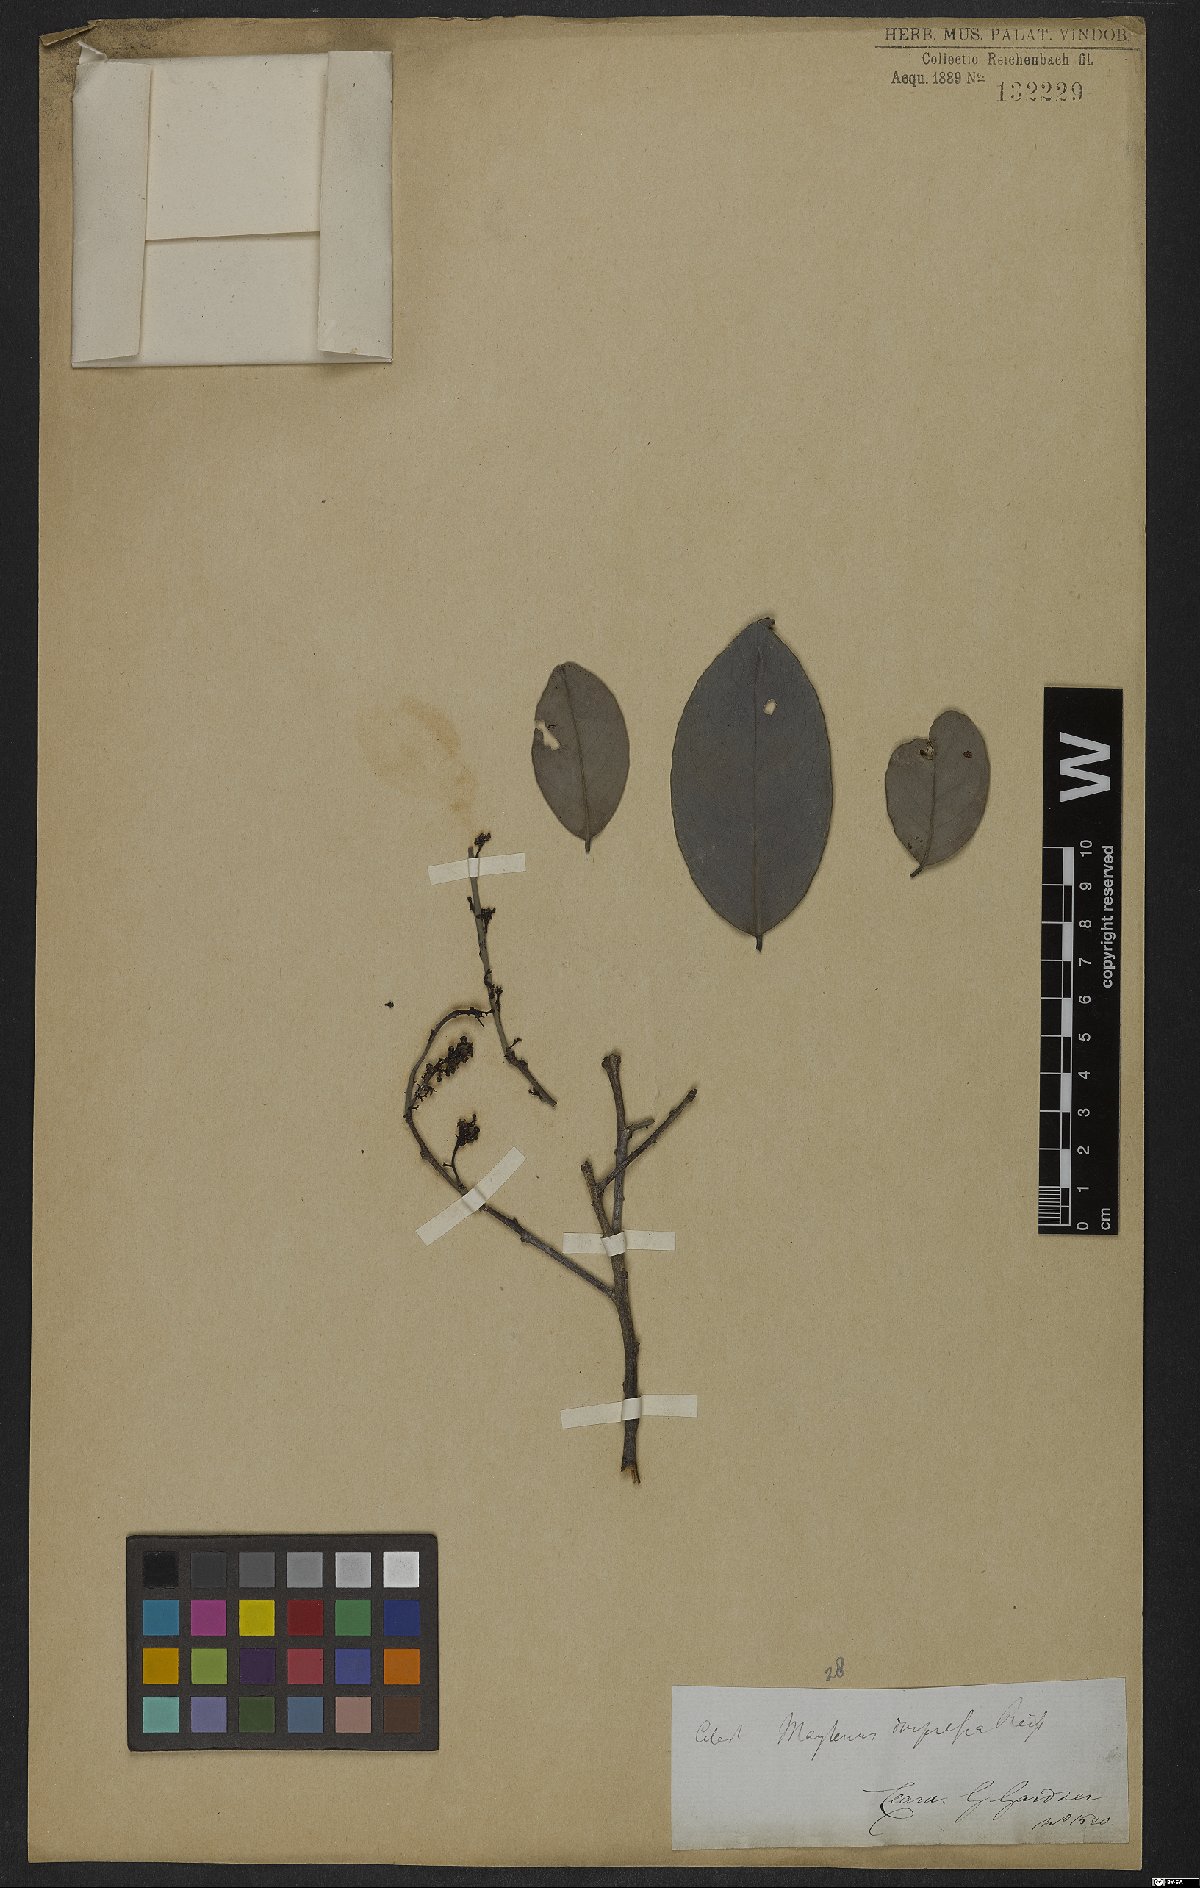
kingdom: Plantae
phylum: Tracheophyta
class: Magnoliopsida
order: Celastrales
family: Celastraceae
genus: Monteverdia
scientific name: Monteverdia obtusifolia
